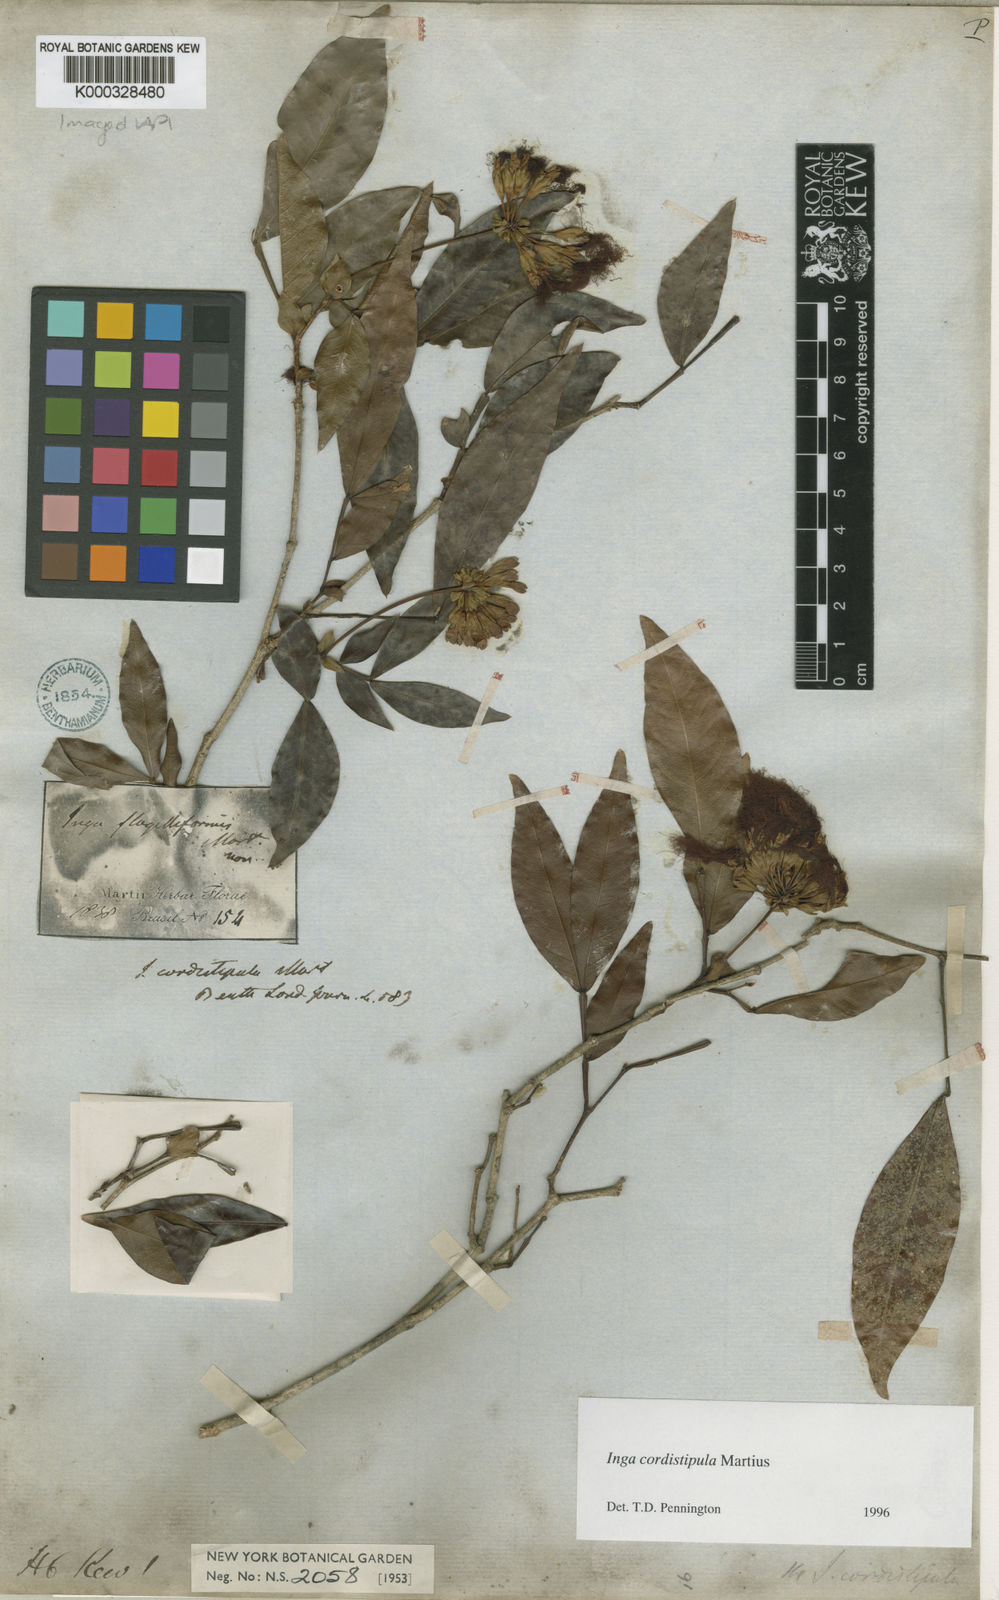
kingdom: Plantae
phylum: Tracheophyta
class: Magnoliopsida
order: Fabales
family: Fabaceae
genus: Inga
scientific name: Inga cordistipula
